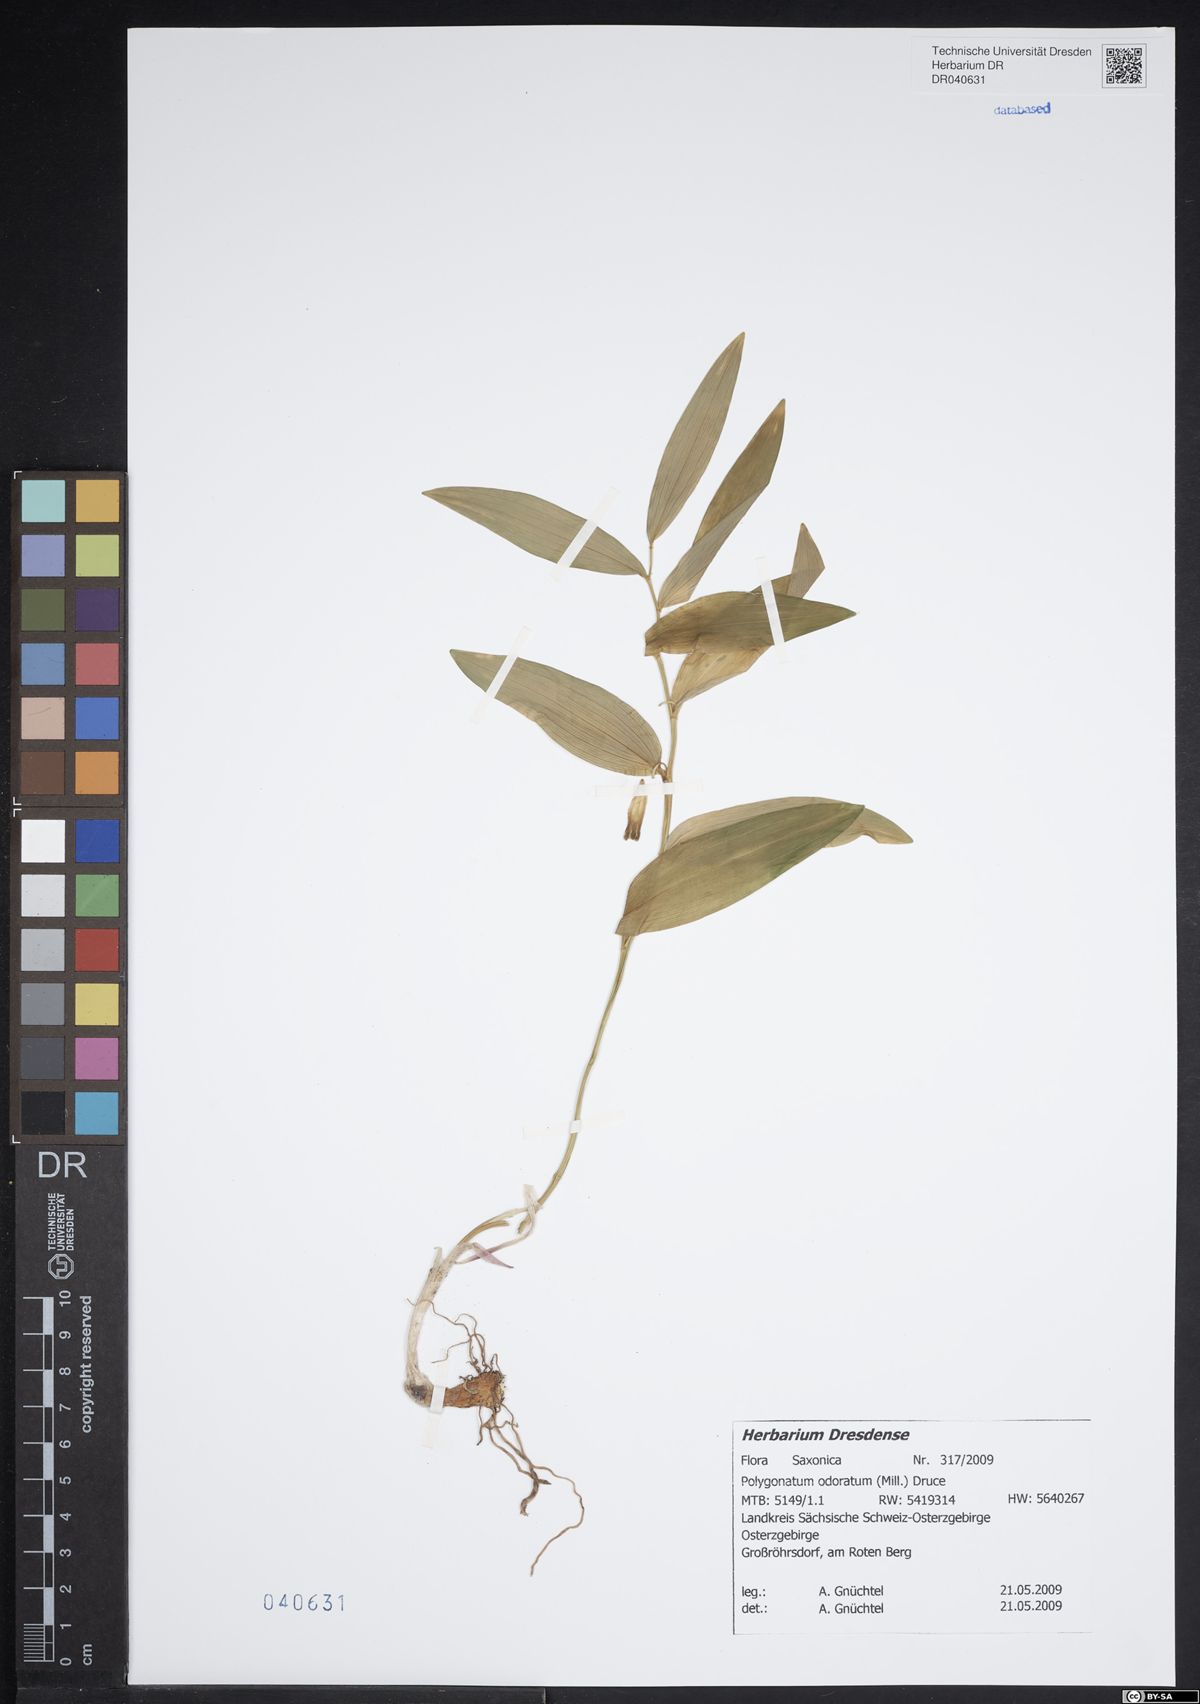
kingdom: Plantae
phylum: Tracheophyta
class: Liliopsida
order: Asparagales
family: Asparagaceae
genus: Polygonatum
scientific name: Polygonatum odoratum
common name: Angular solomon's-seal
